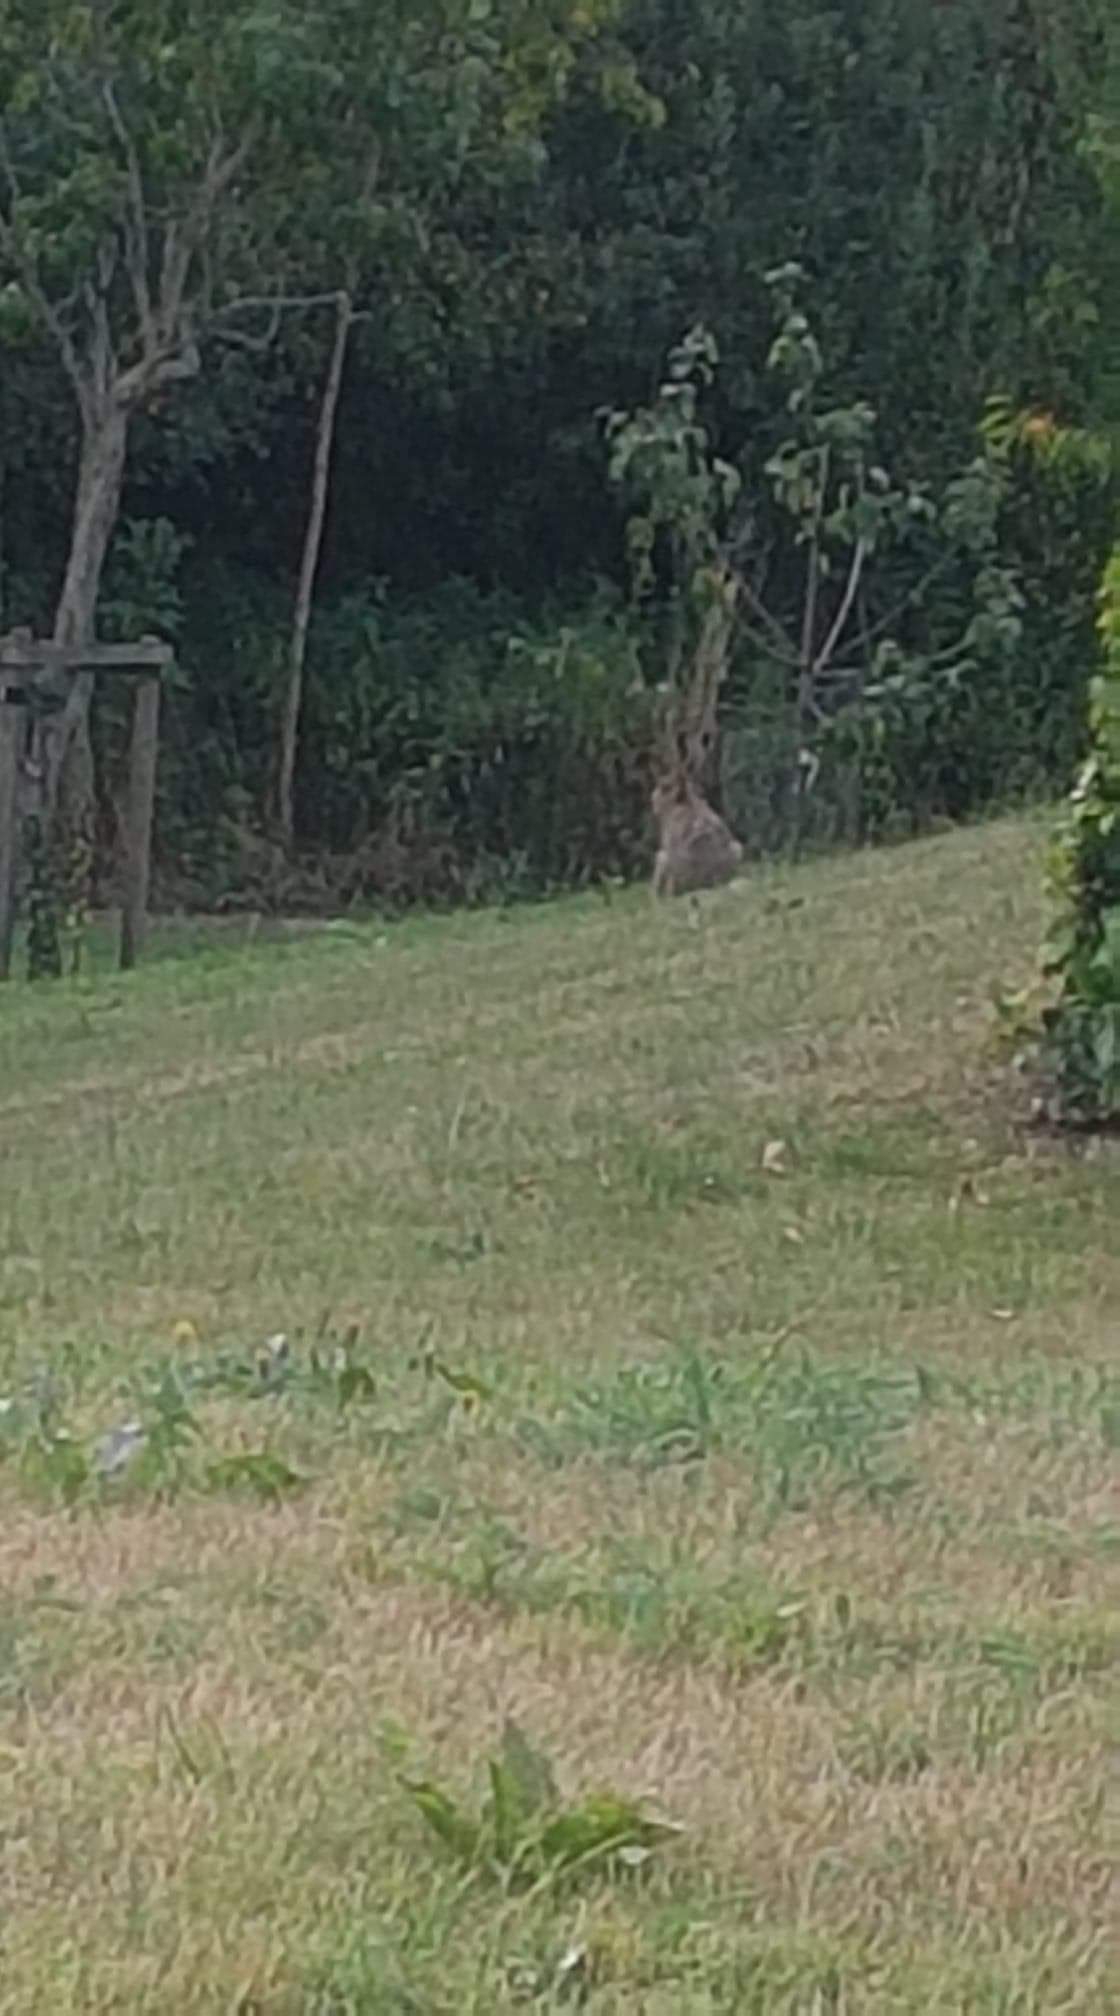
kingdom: Animalia
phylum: Chordata
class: Mammalia
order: Lagomorpha
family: Leporidae
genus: Lepus
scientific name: Lepus europaeus
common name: Hare
